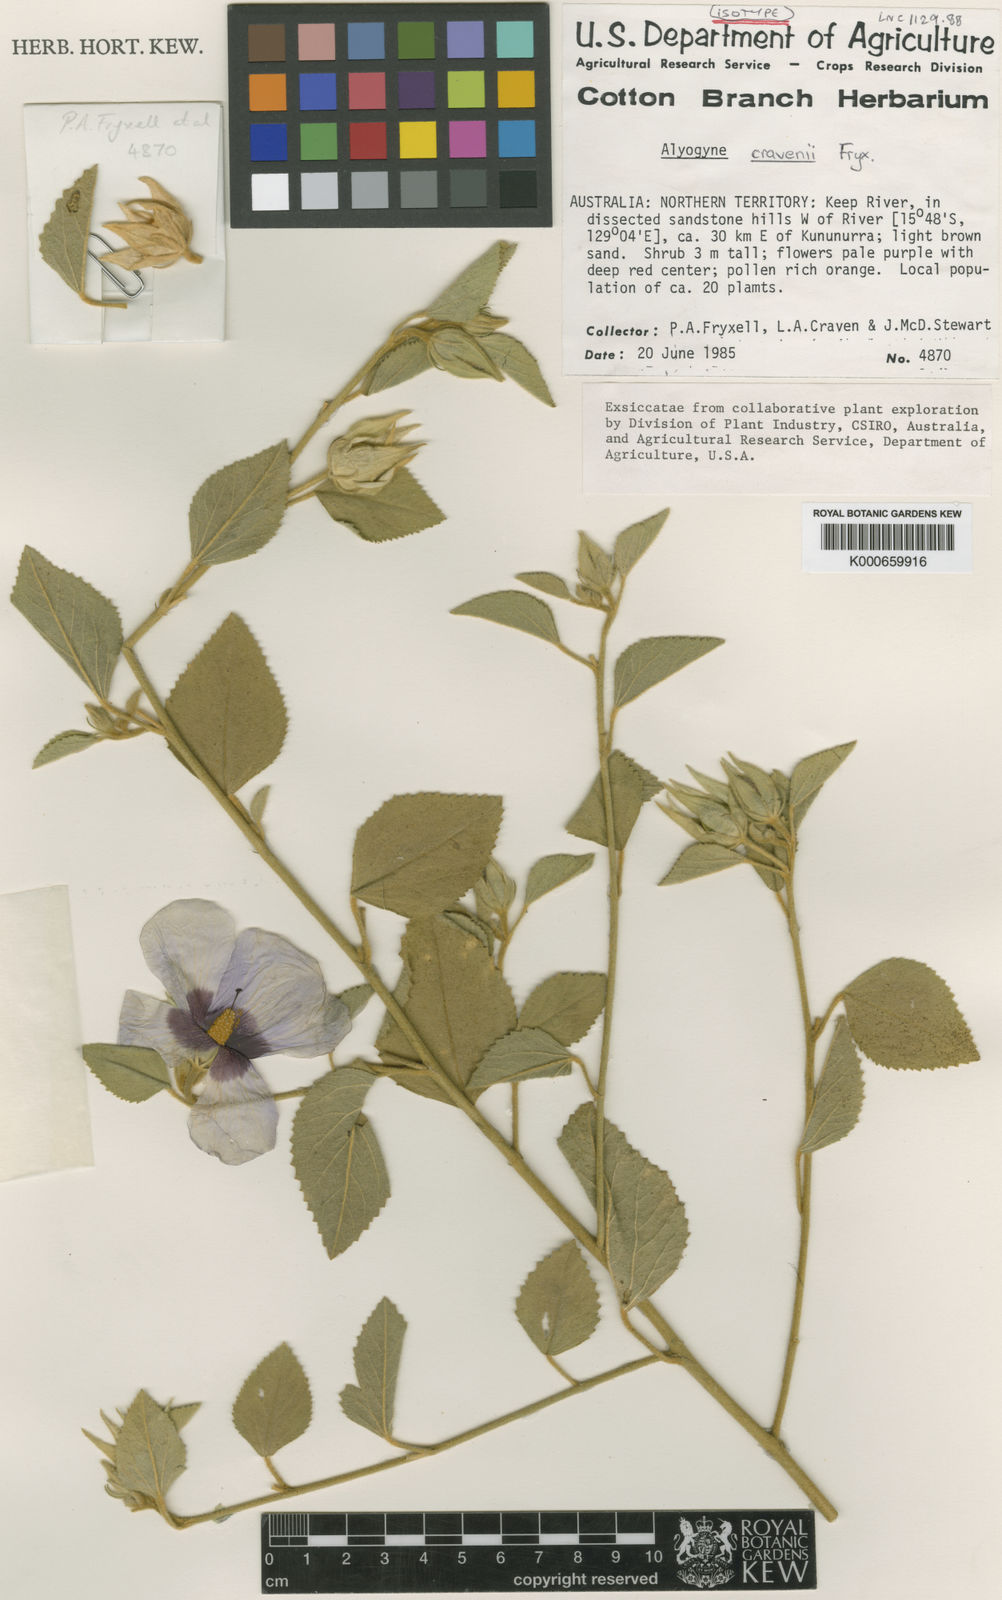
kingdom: Plantae
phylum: Tracheophyta
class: Magnoliopsida
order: Malvales
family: Malvaceae
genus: Hibiscus
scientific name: Hibiscus cravenii
